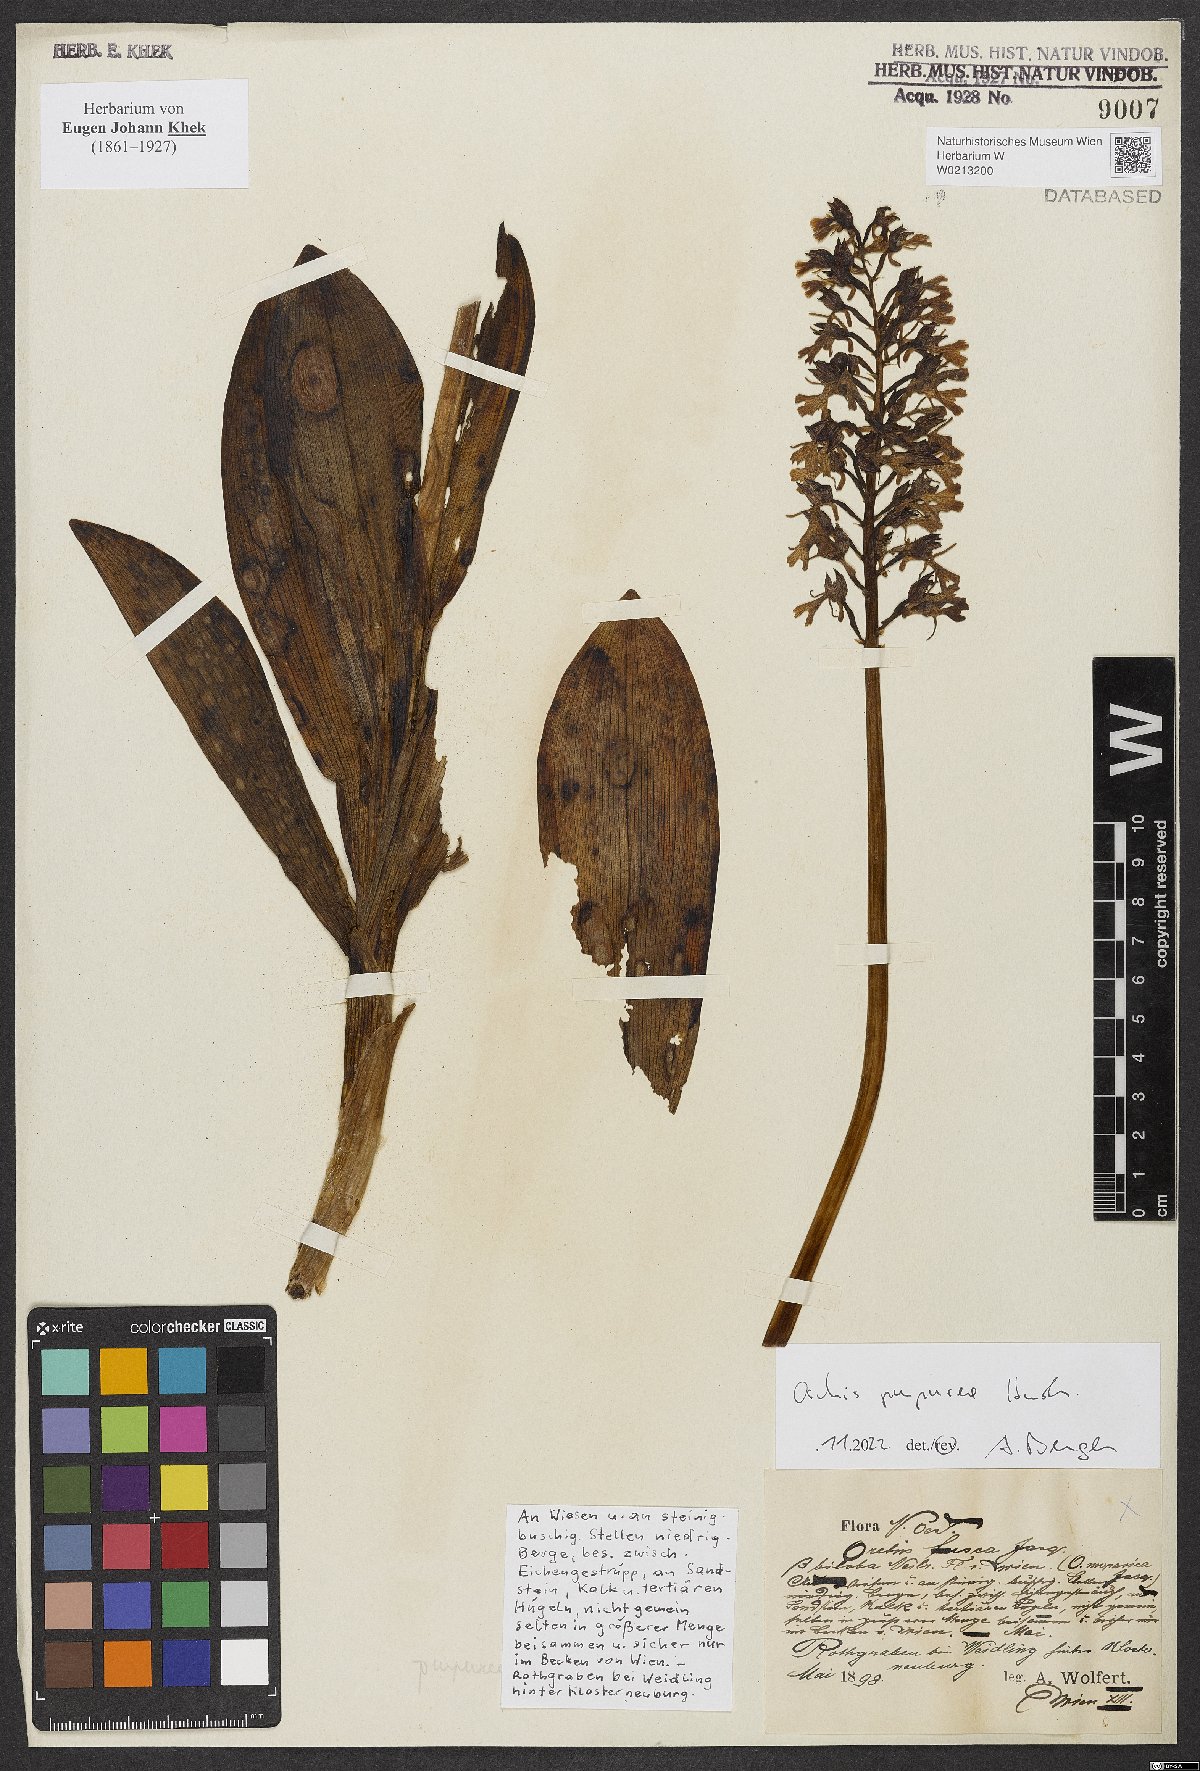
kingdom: Plantae
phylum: Tracheophyta
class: Liliopsida
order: Asparagales
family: Orchidaceae
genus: Orchis
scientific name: Orchis purpurea
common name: Lady orchid
